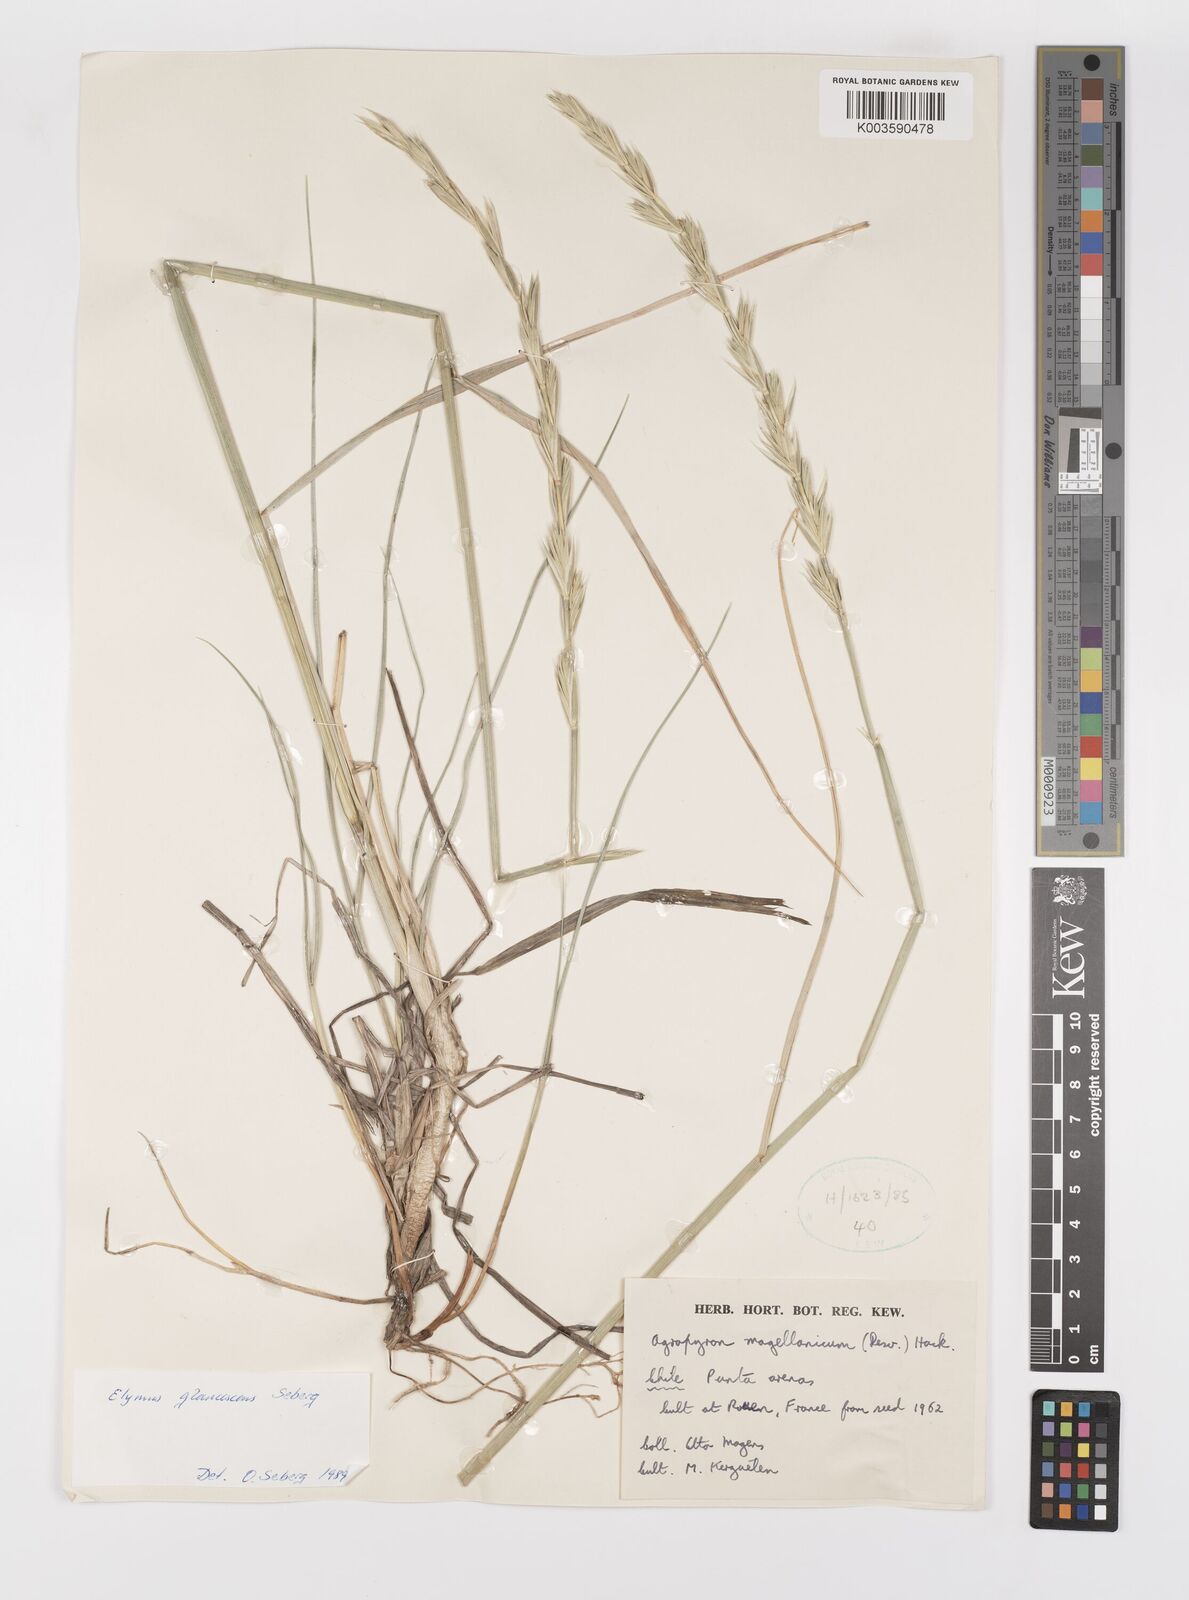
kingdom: Plantae
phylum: Tracheophyta
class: Liliopsida
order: Poales
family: Poaceae
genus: Elymus
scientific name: Elymus magellanicus
